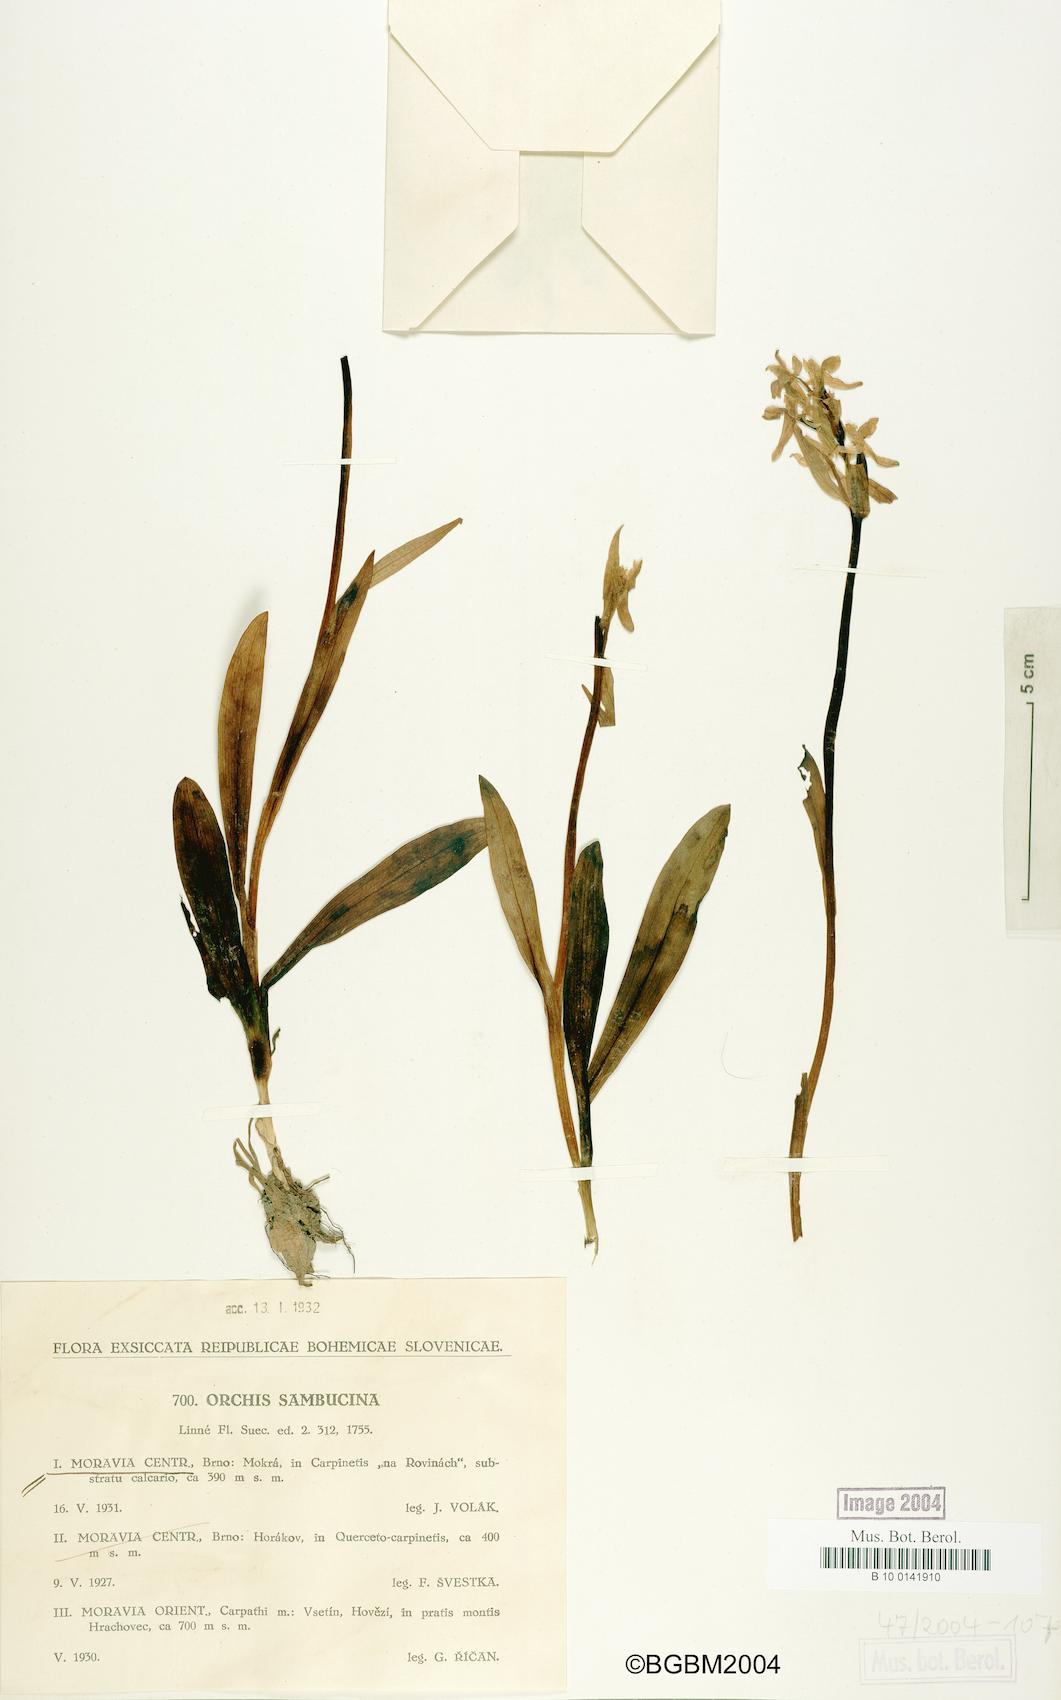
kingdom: Plantae
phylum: Tracheophyta
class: Liliopsida
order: Asparagales
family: Orchidaceae
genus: Dactylorhiza
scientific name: Dactylorhiza sambucina
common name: Elder-flowered orchid
